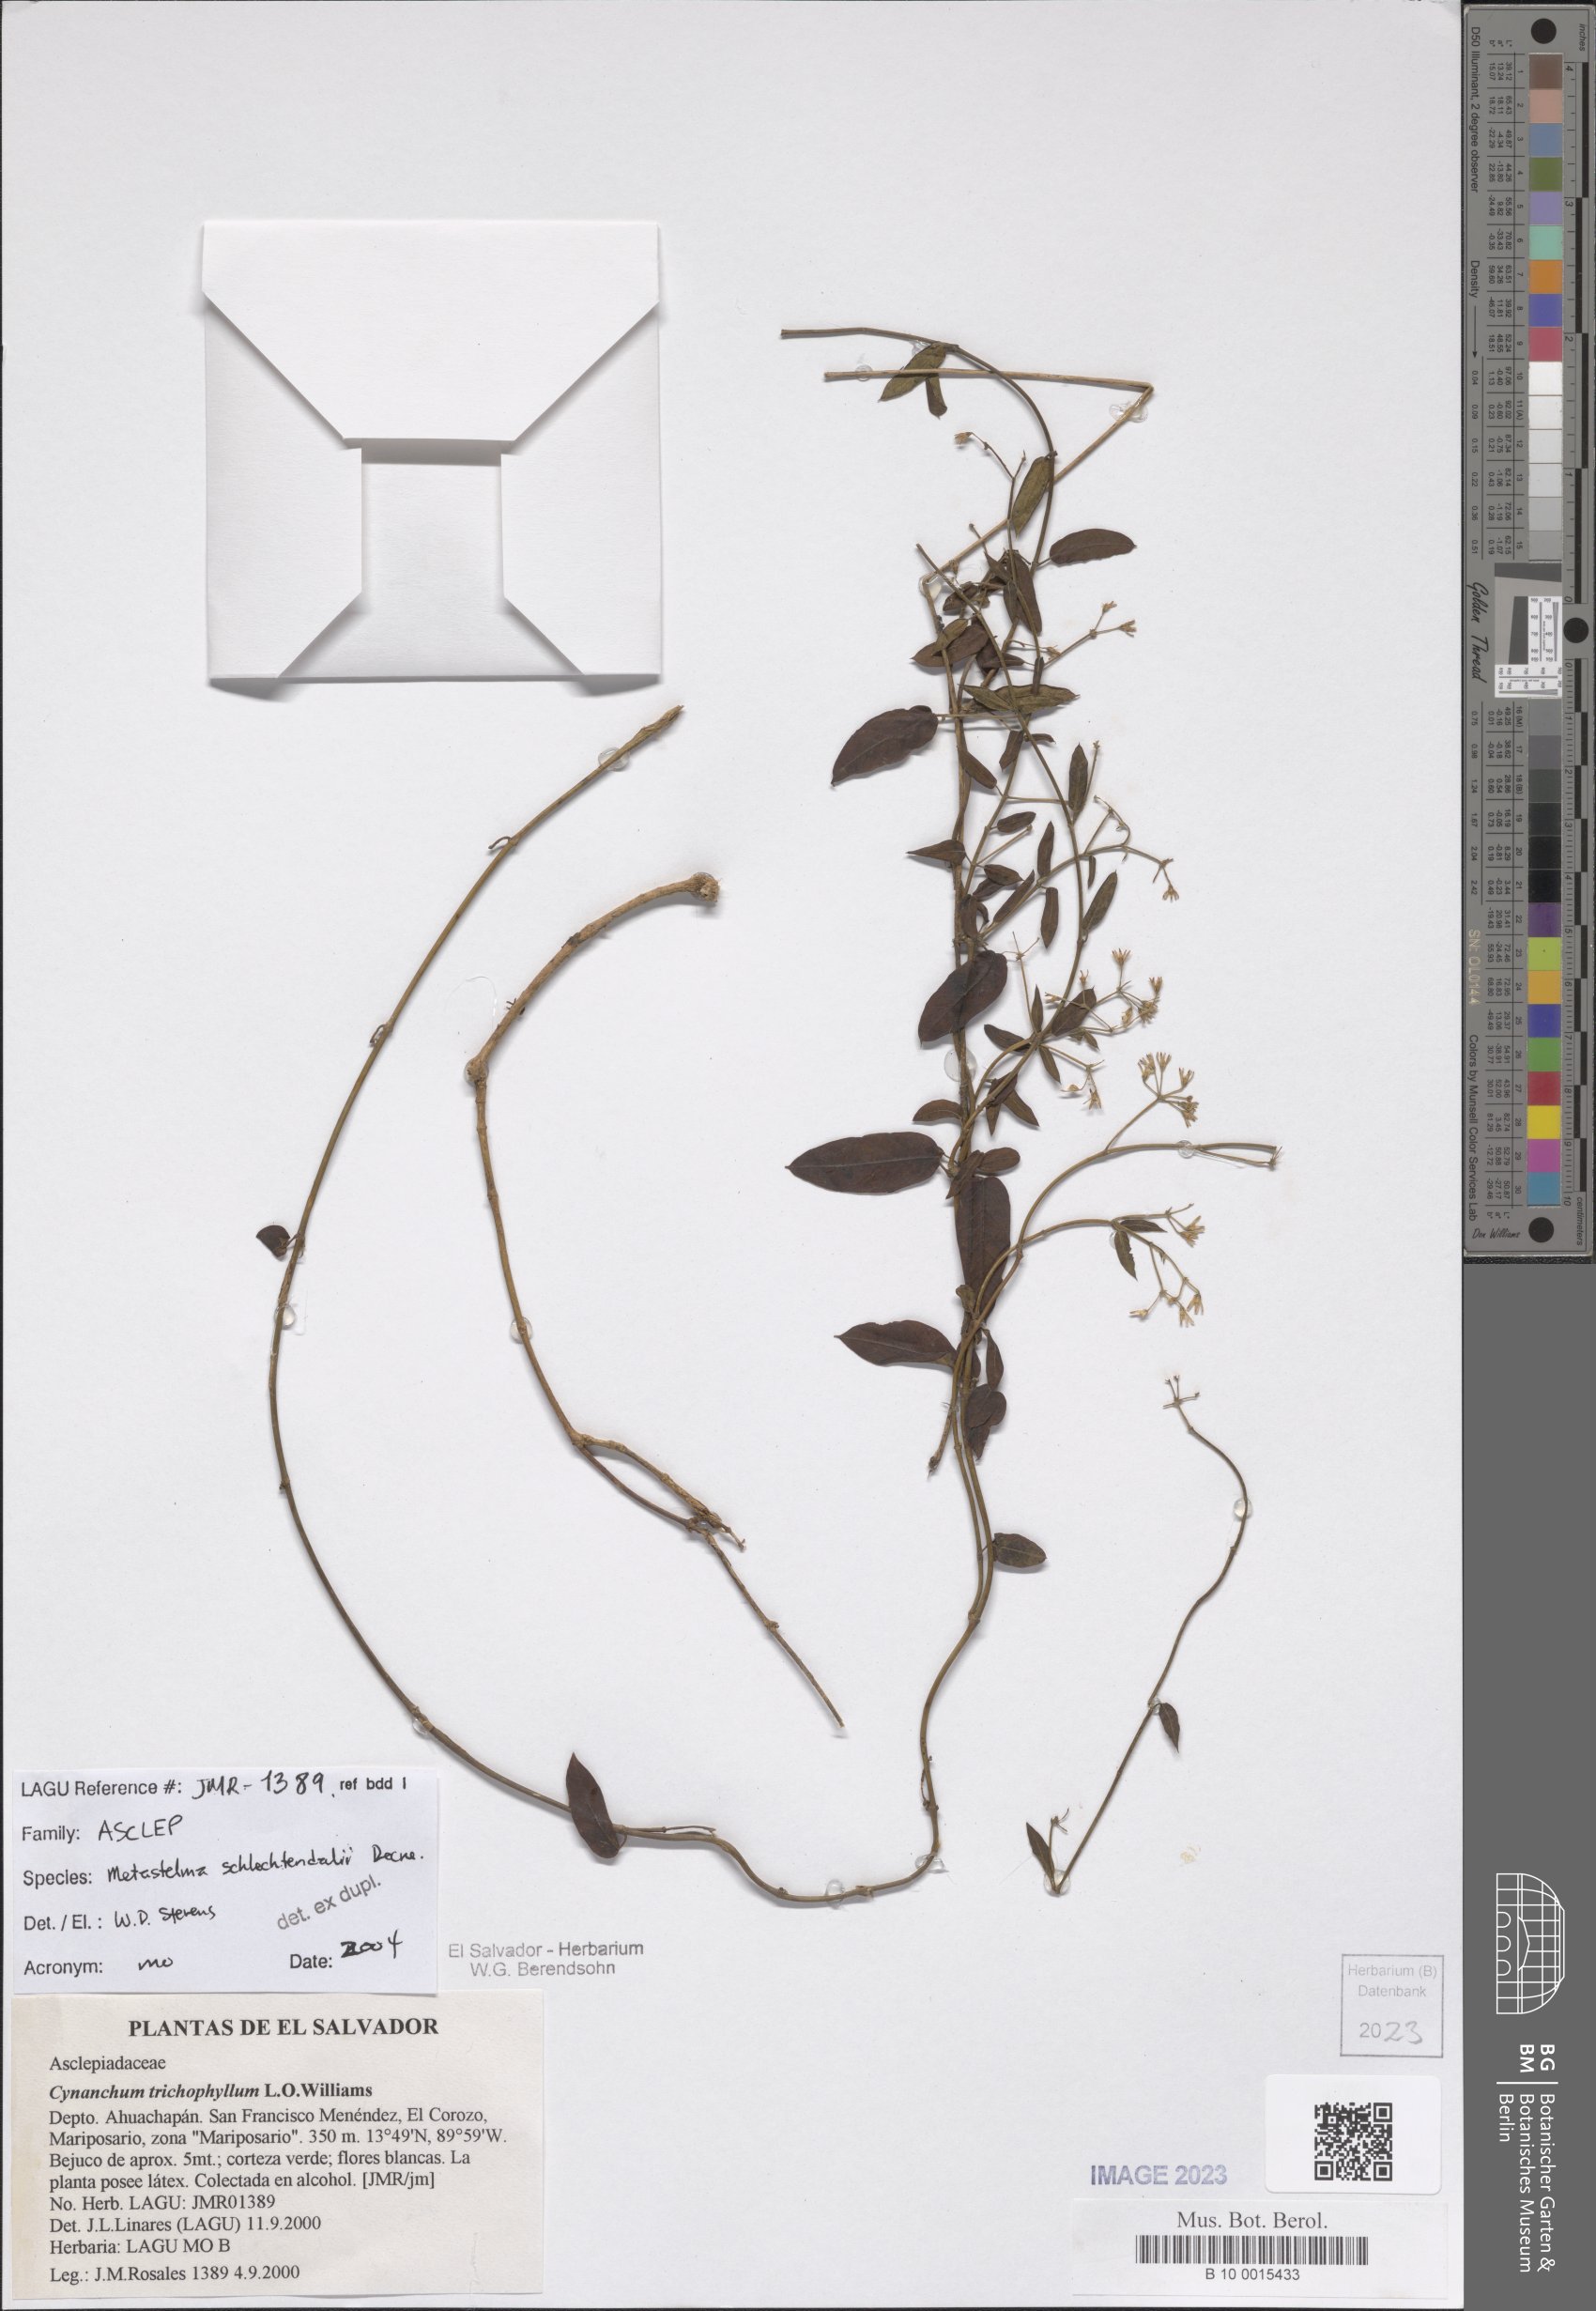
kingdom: Plantae
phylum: Tracheophyta
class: Magnoliopsida
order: Gentianales
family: Apocynaceae
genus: Metastelma
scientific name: Metastelma schlechtendalii
